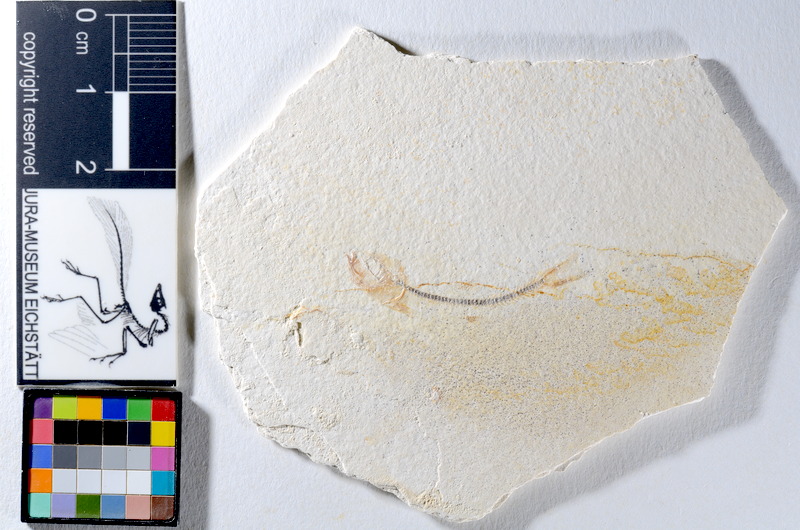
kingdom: Animalia
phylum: Chordata
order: Salmoniformes
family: Orthogonikleithridae
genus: Orthogonikleithrus
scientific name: Orthogonikleithrus hoelli
